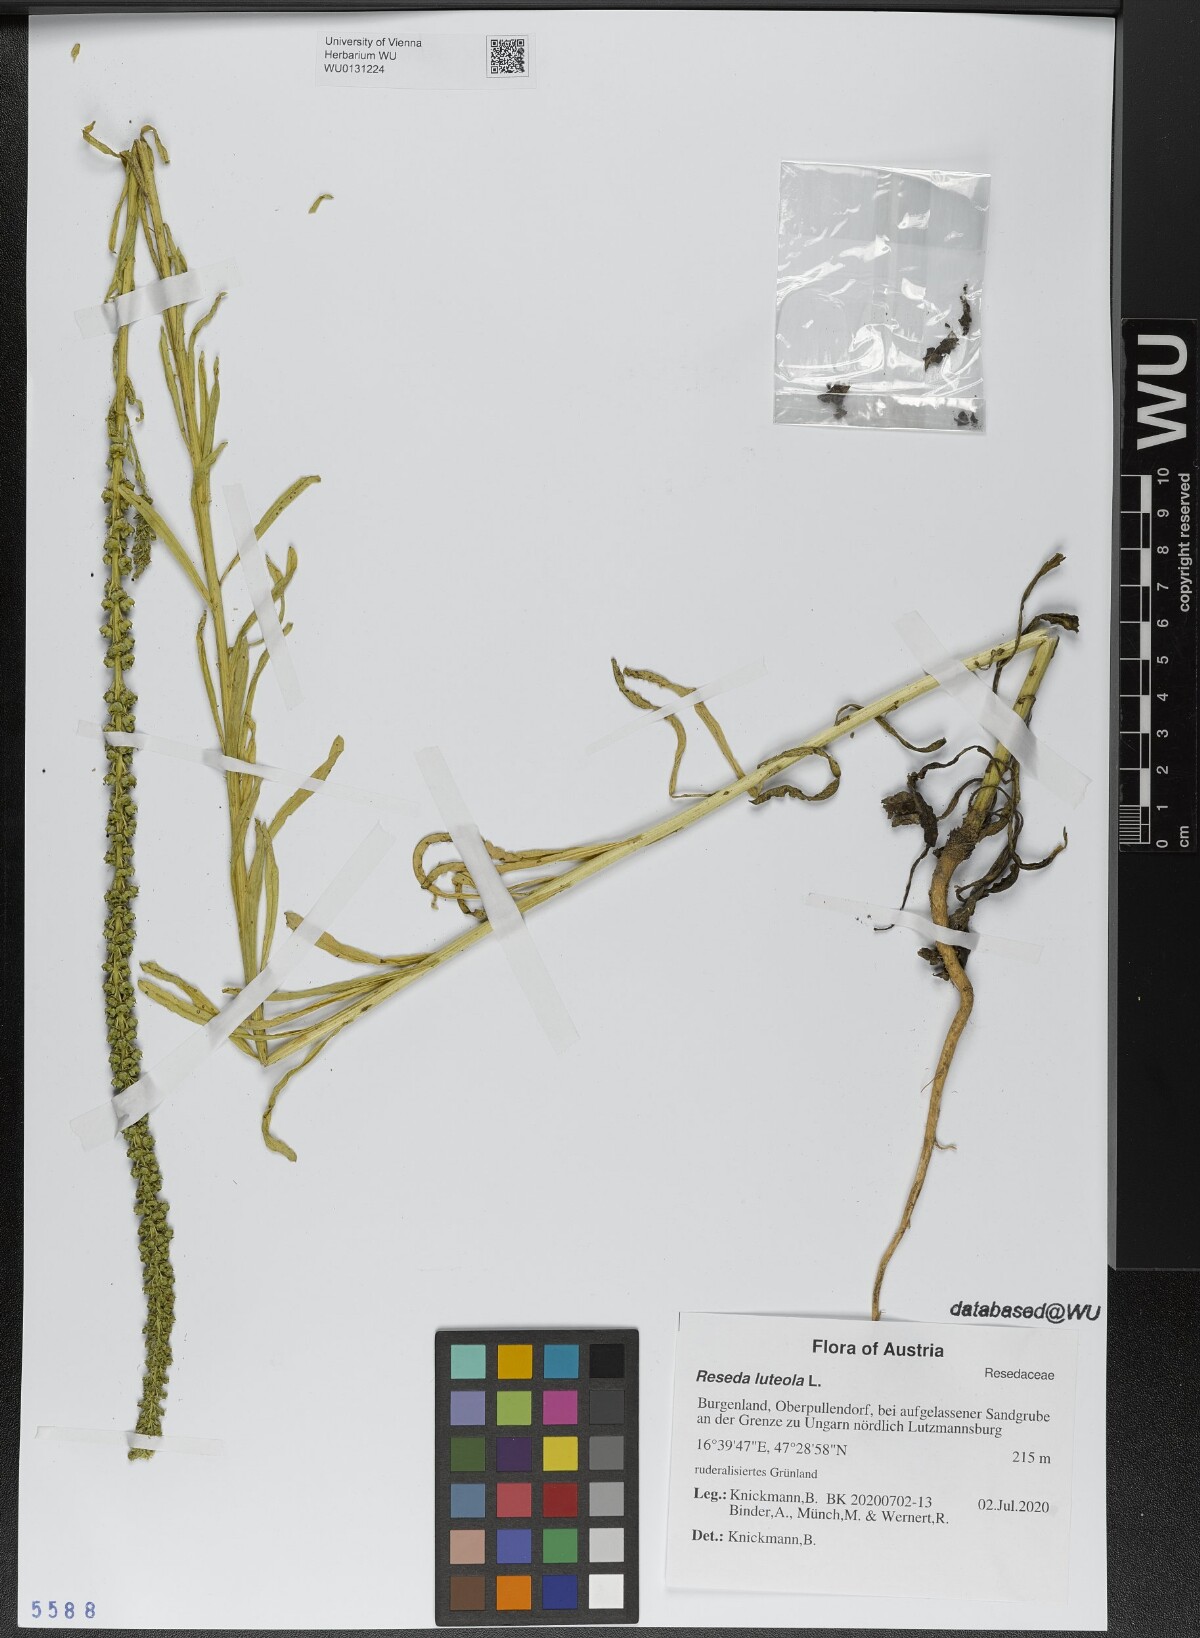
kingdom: Plantae
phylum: Tracheophyta
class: Magnoliopsida
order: Brassicales
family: Resedaceae
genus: Reseda
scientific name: Reseda luteola
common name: Weld
